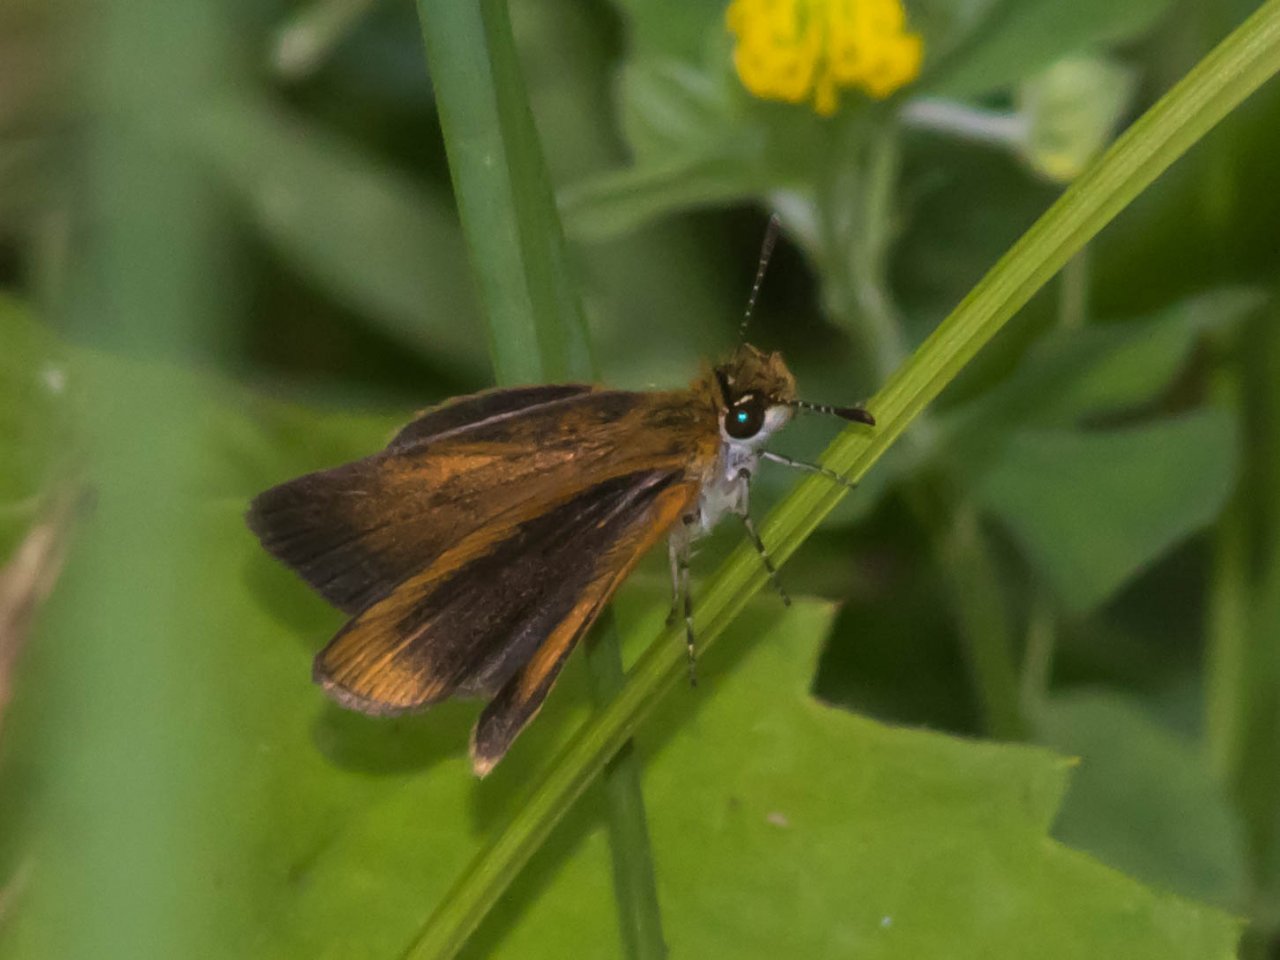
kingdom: Animalia
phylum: Arthropoda
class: Insecta
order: Lepidoptera
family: Hesperiidae
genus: Ancyloxypha
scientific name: Ancyloxypha numitor
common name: Least Skipper
